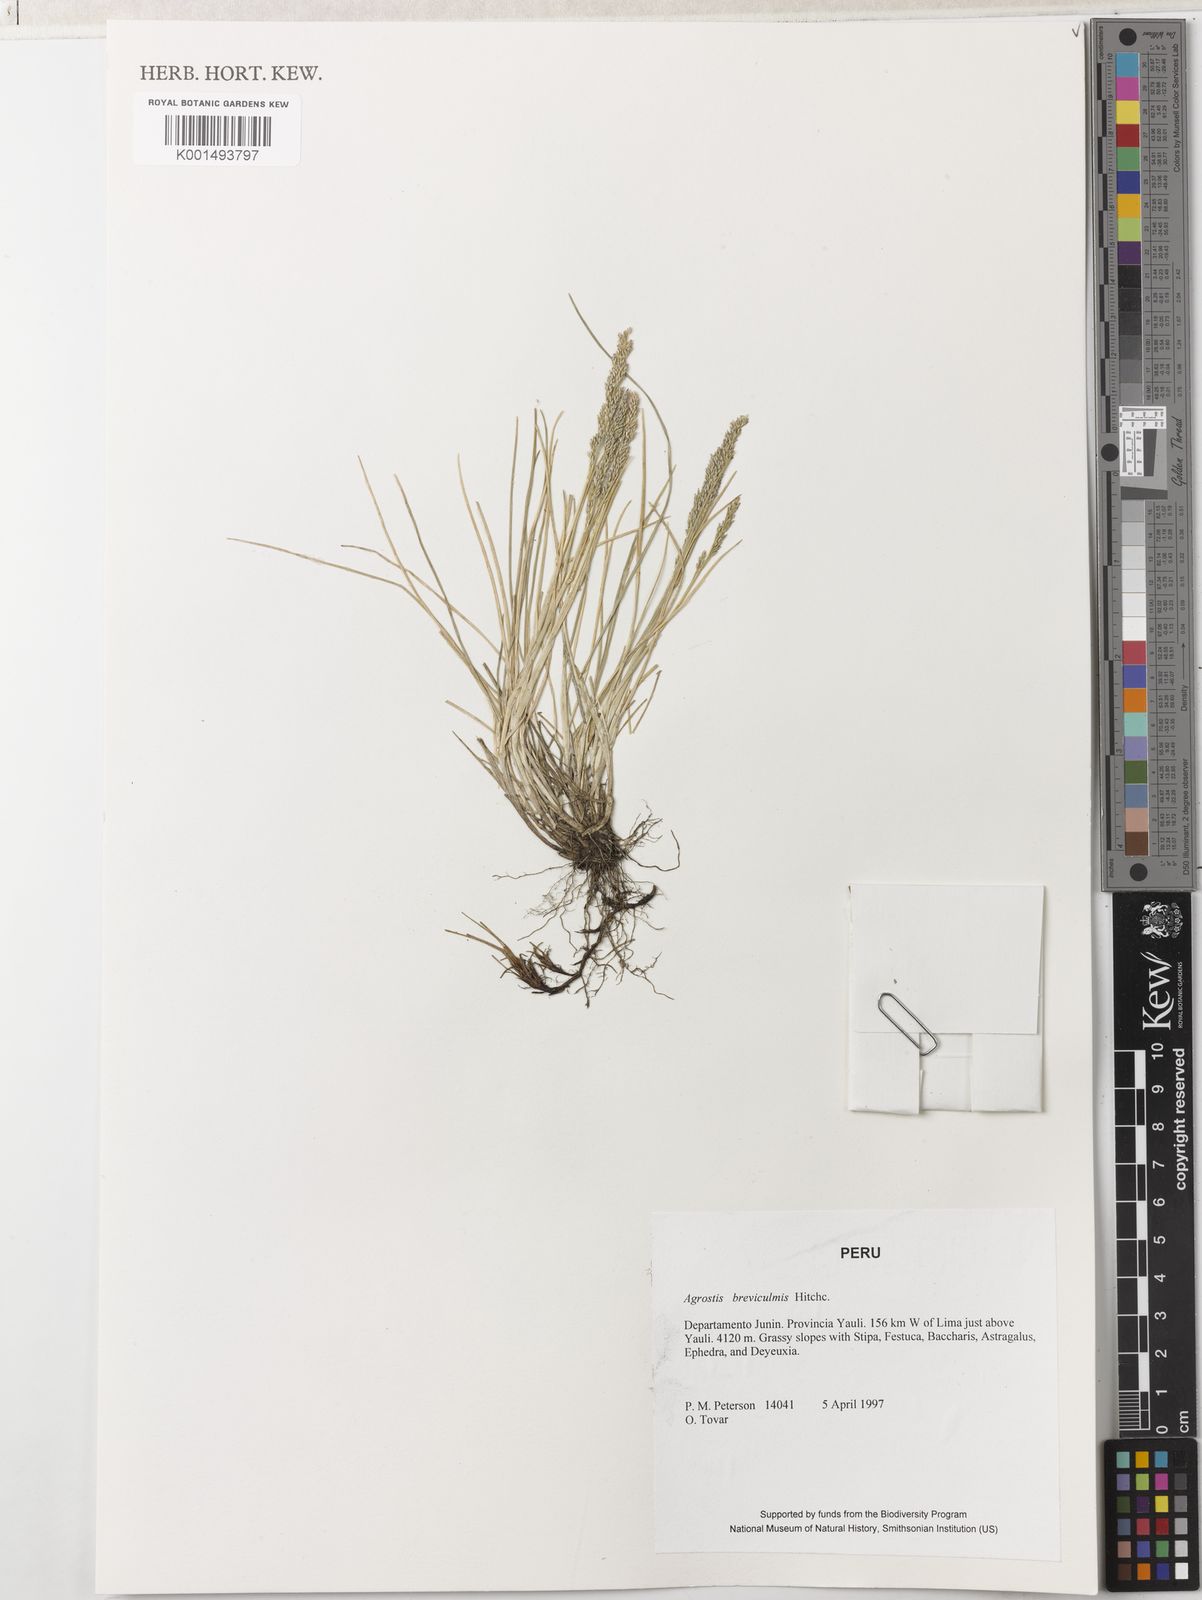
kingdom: Plantae
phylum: Tracheophyta
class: Liliopsida
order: Poales
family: Poaceae
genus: Agrostis
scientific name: Agrostis breviculmis
